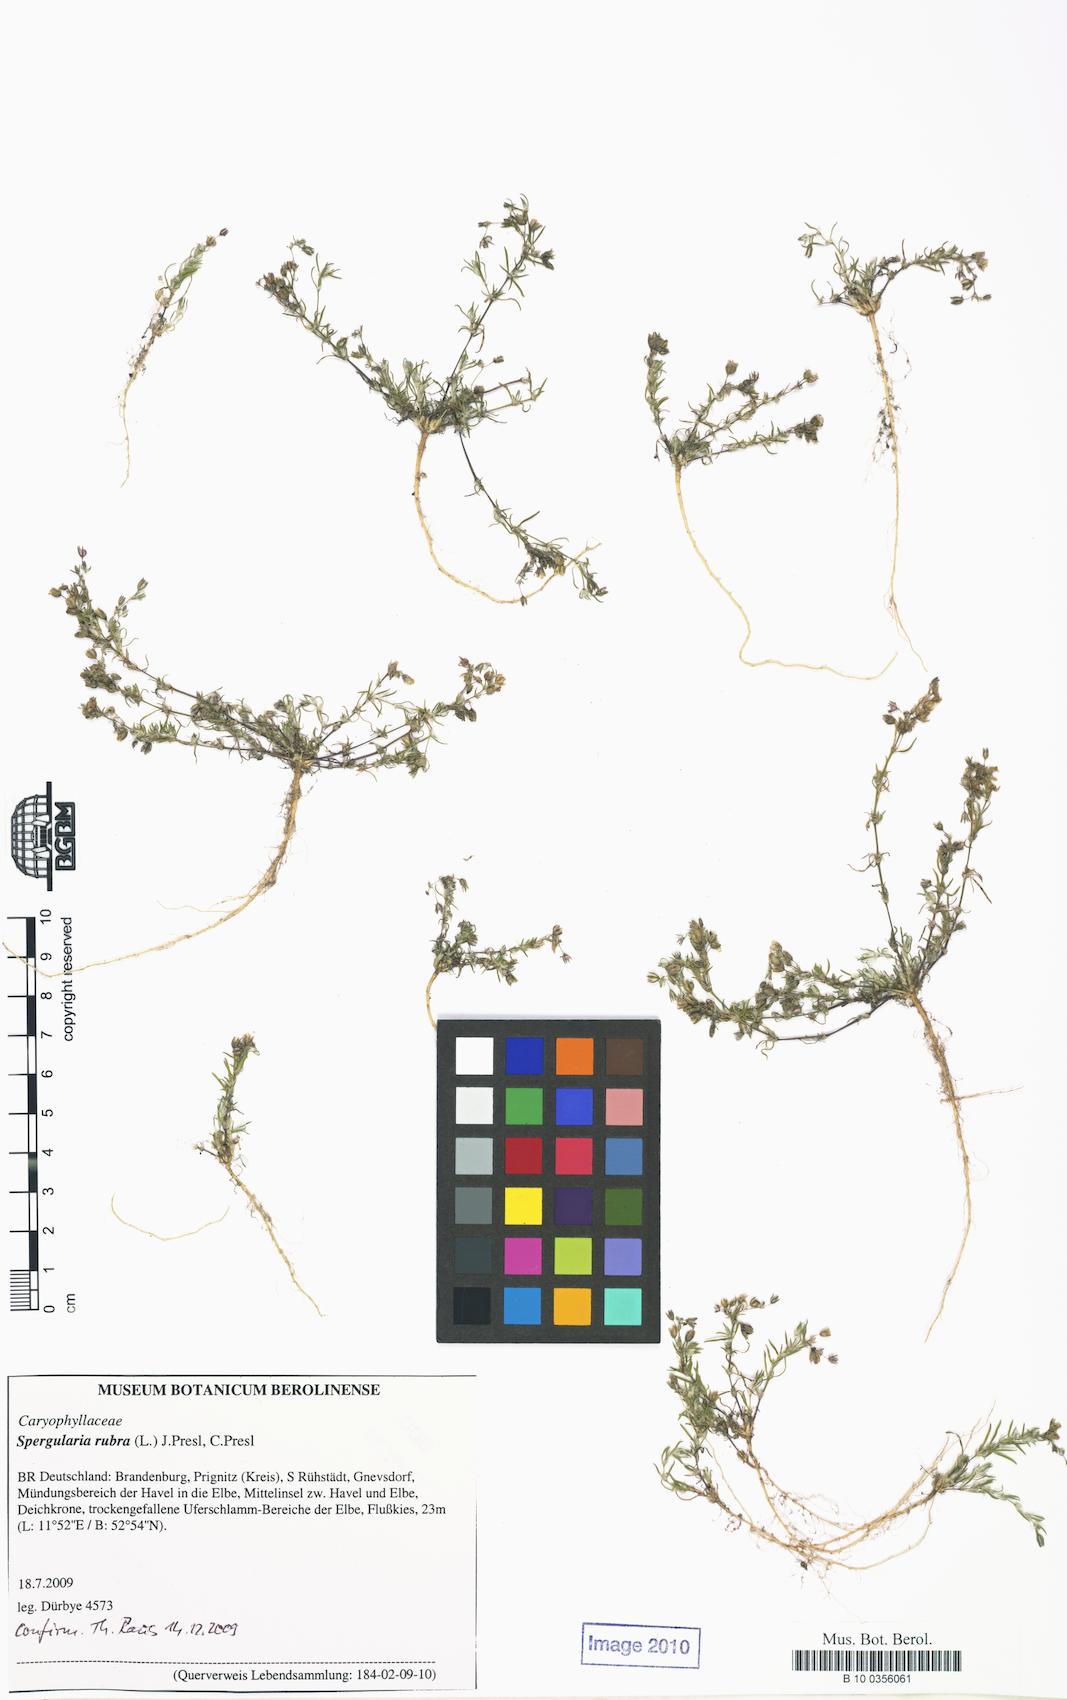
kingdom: Plantae
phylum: Tracheophyta
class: Magnoliopsida
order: Caryophyllales
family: Caryophyllaceae
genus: Spergularia
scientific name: Spergularia rubra
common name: Red sand-spurrey
